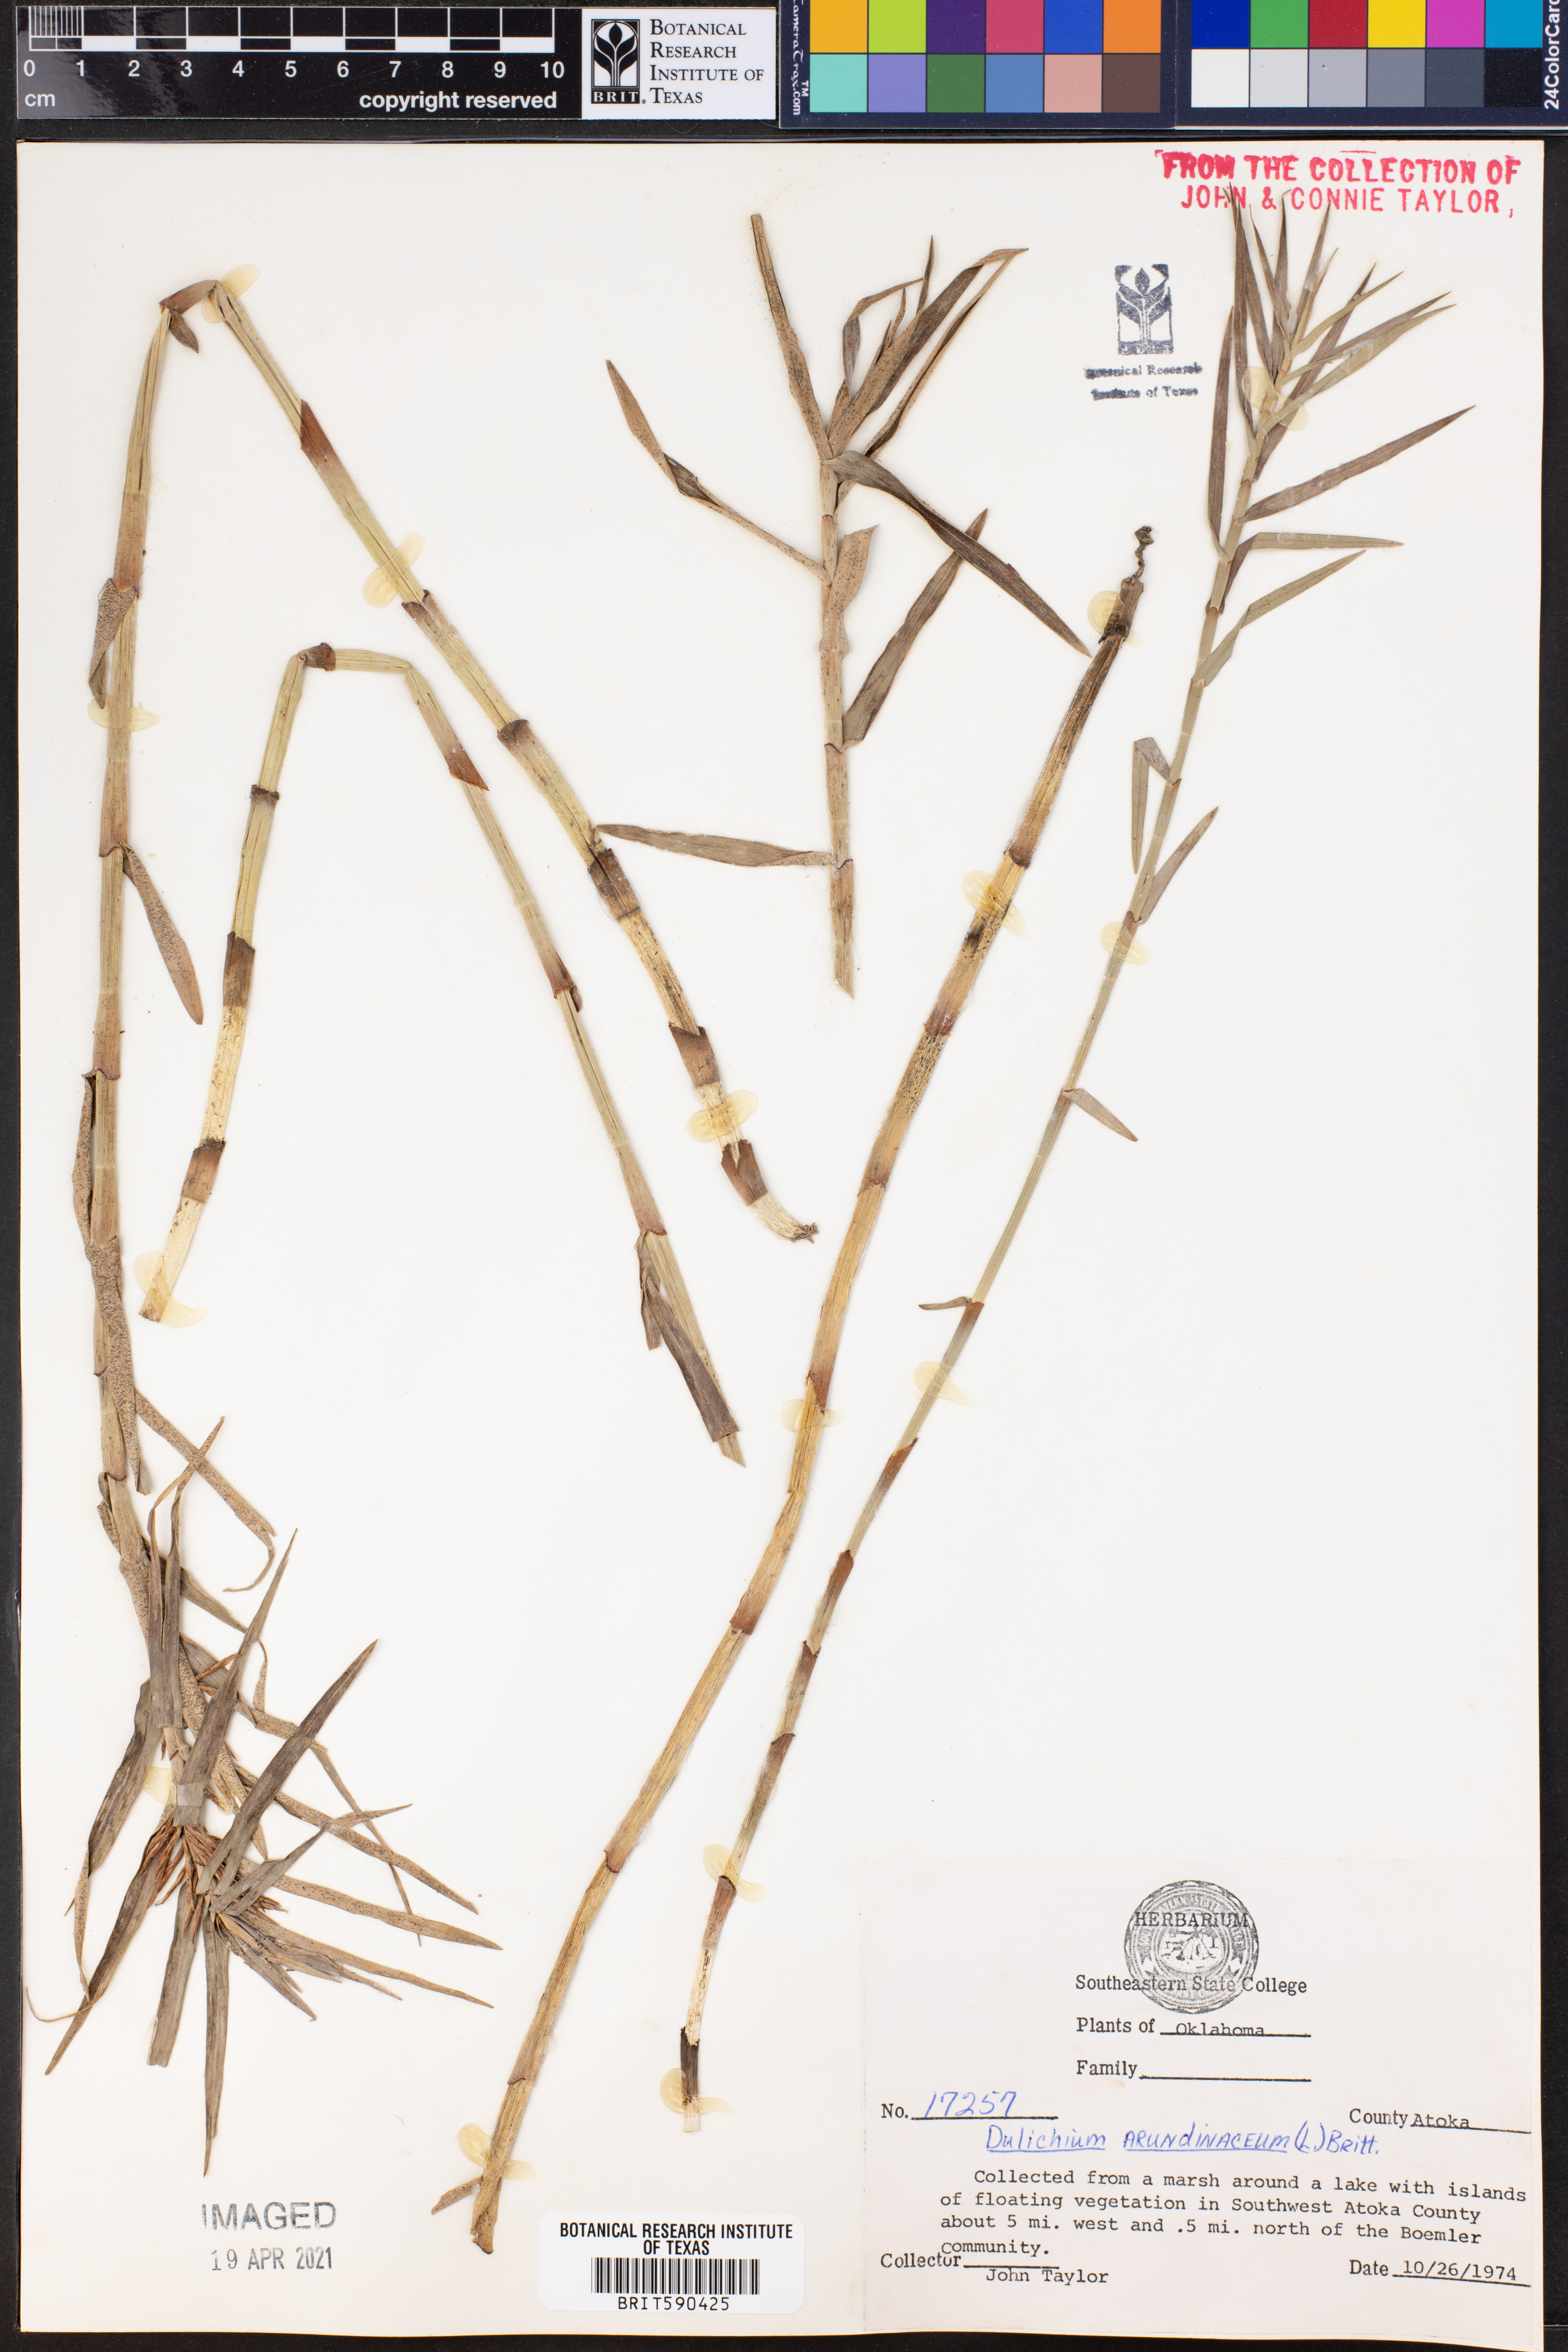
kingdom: Plantae
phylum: Tracheophyta
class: Liliopsida
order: Poales
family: Cyperaceae
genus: Dulichium
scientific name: Dulichium arundinaceum
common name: Three-way sedge
